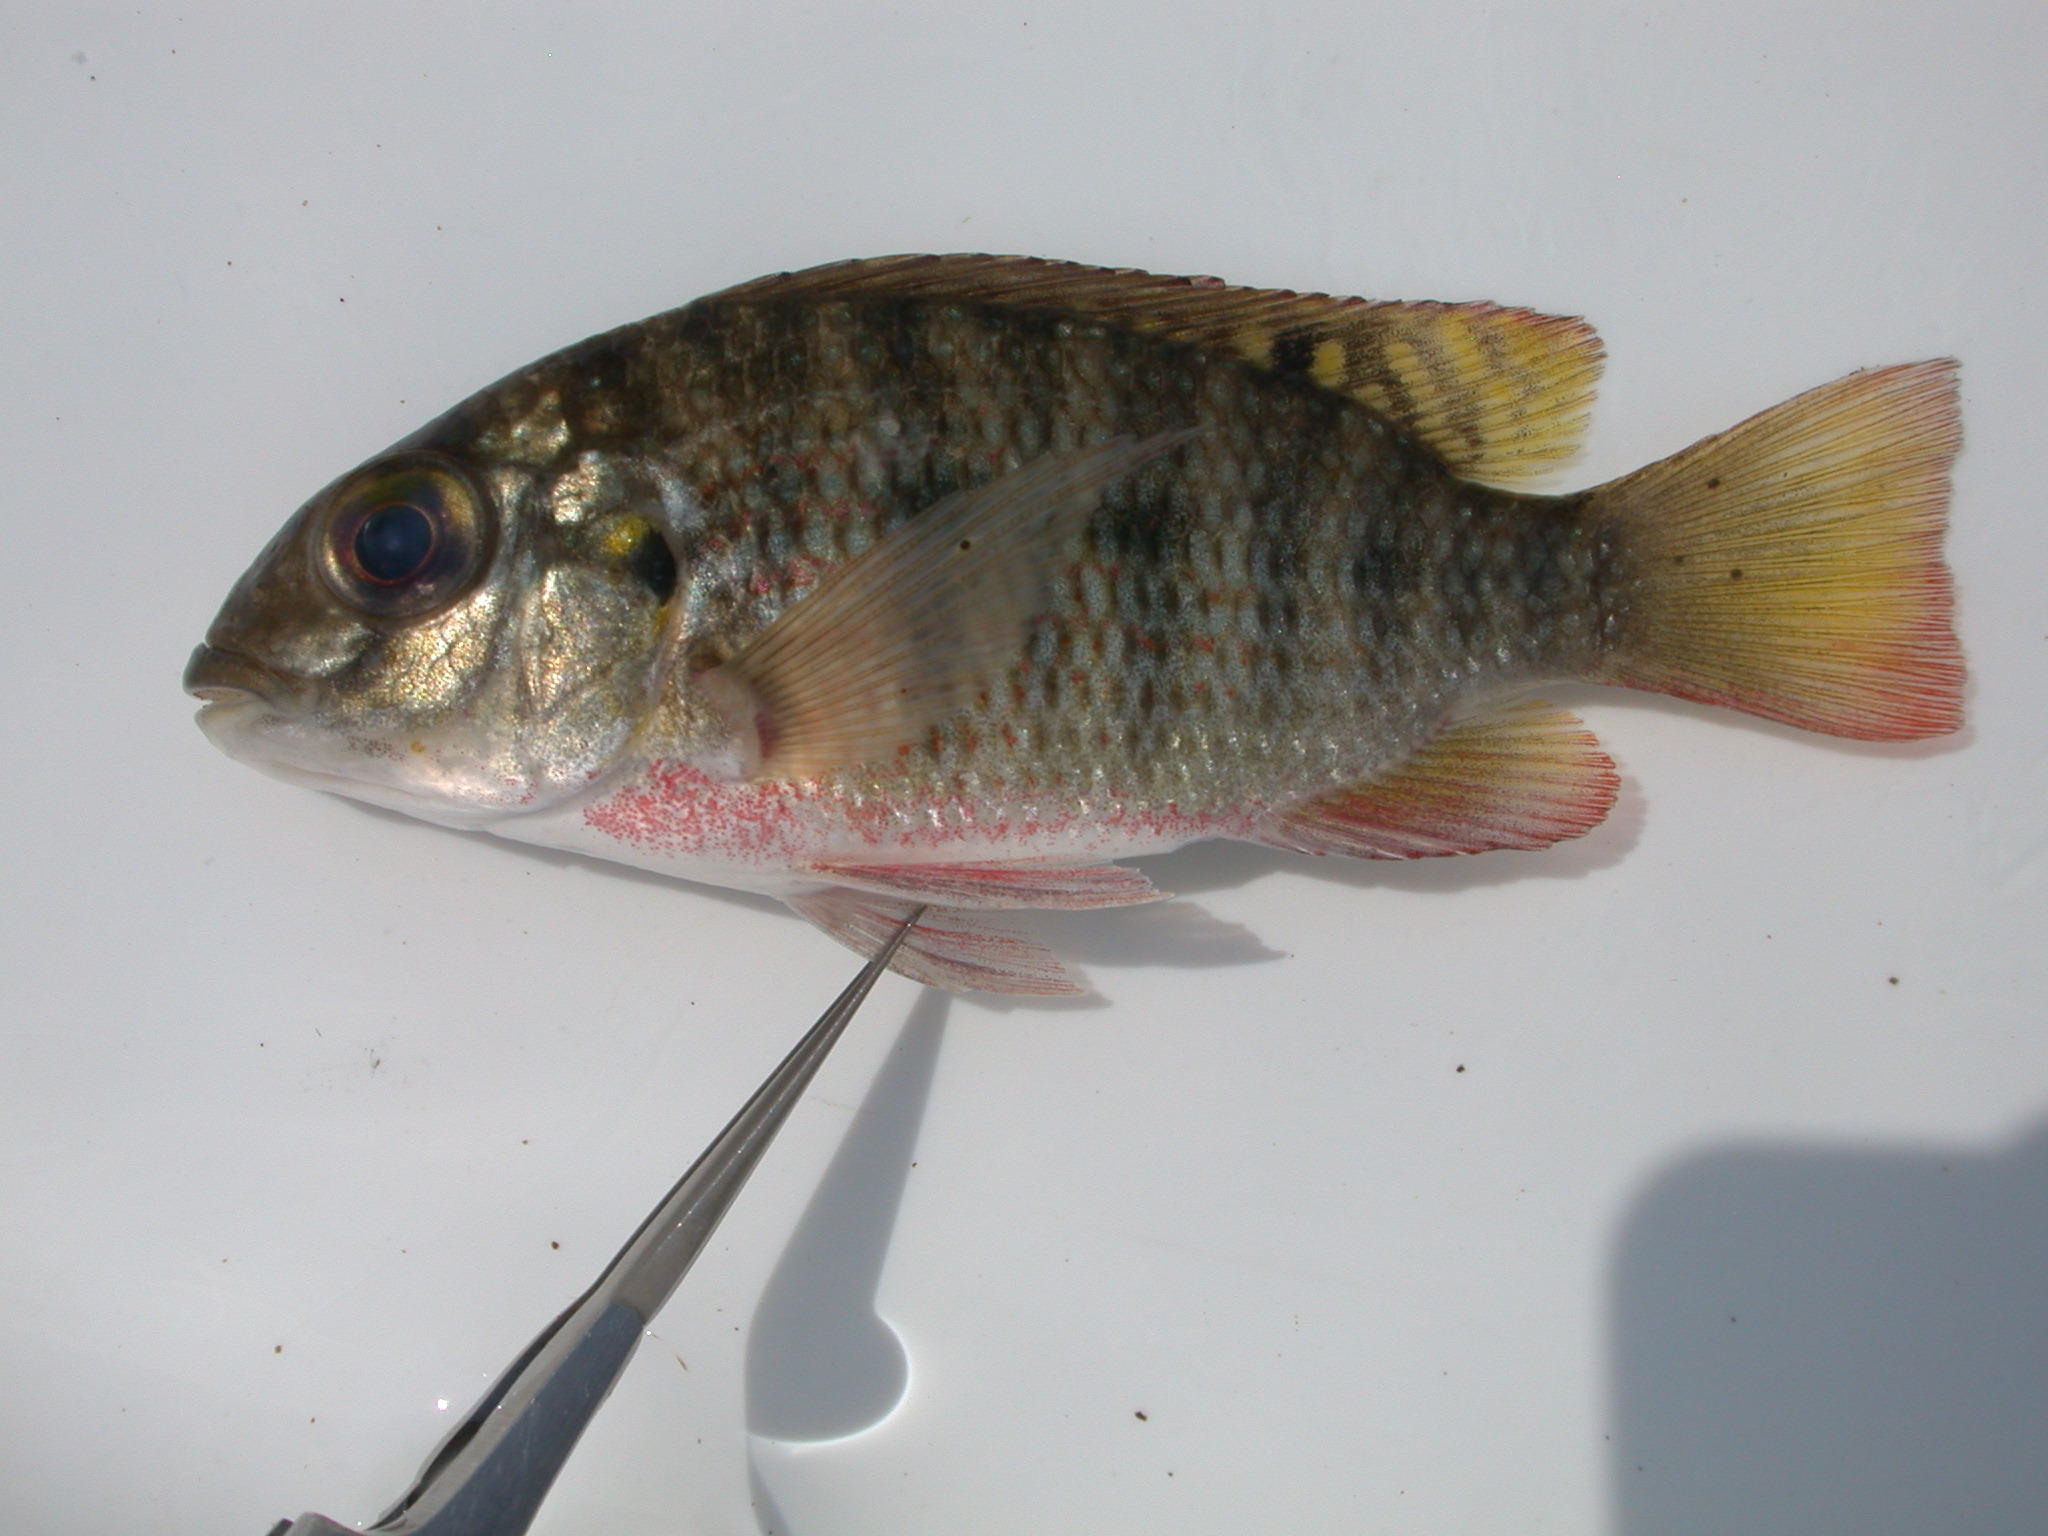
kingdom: Animalia
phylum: Chordata
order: Perciformes
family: Cichlidae
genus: Coptodon
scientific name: Coptodon rendalli
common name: Redbreast tilapia
